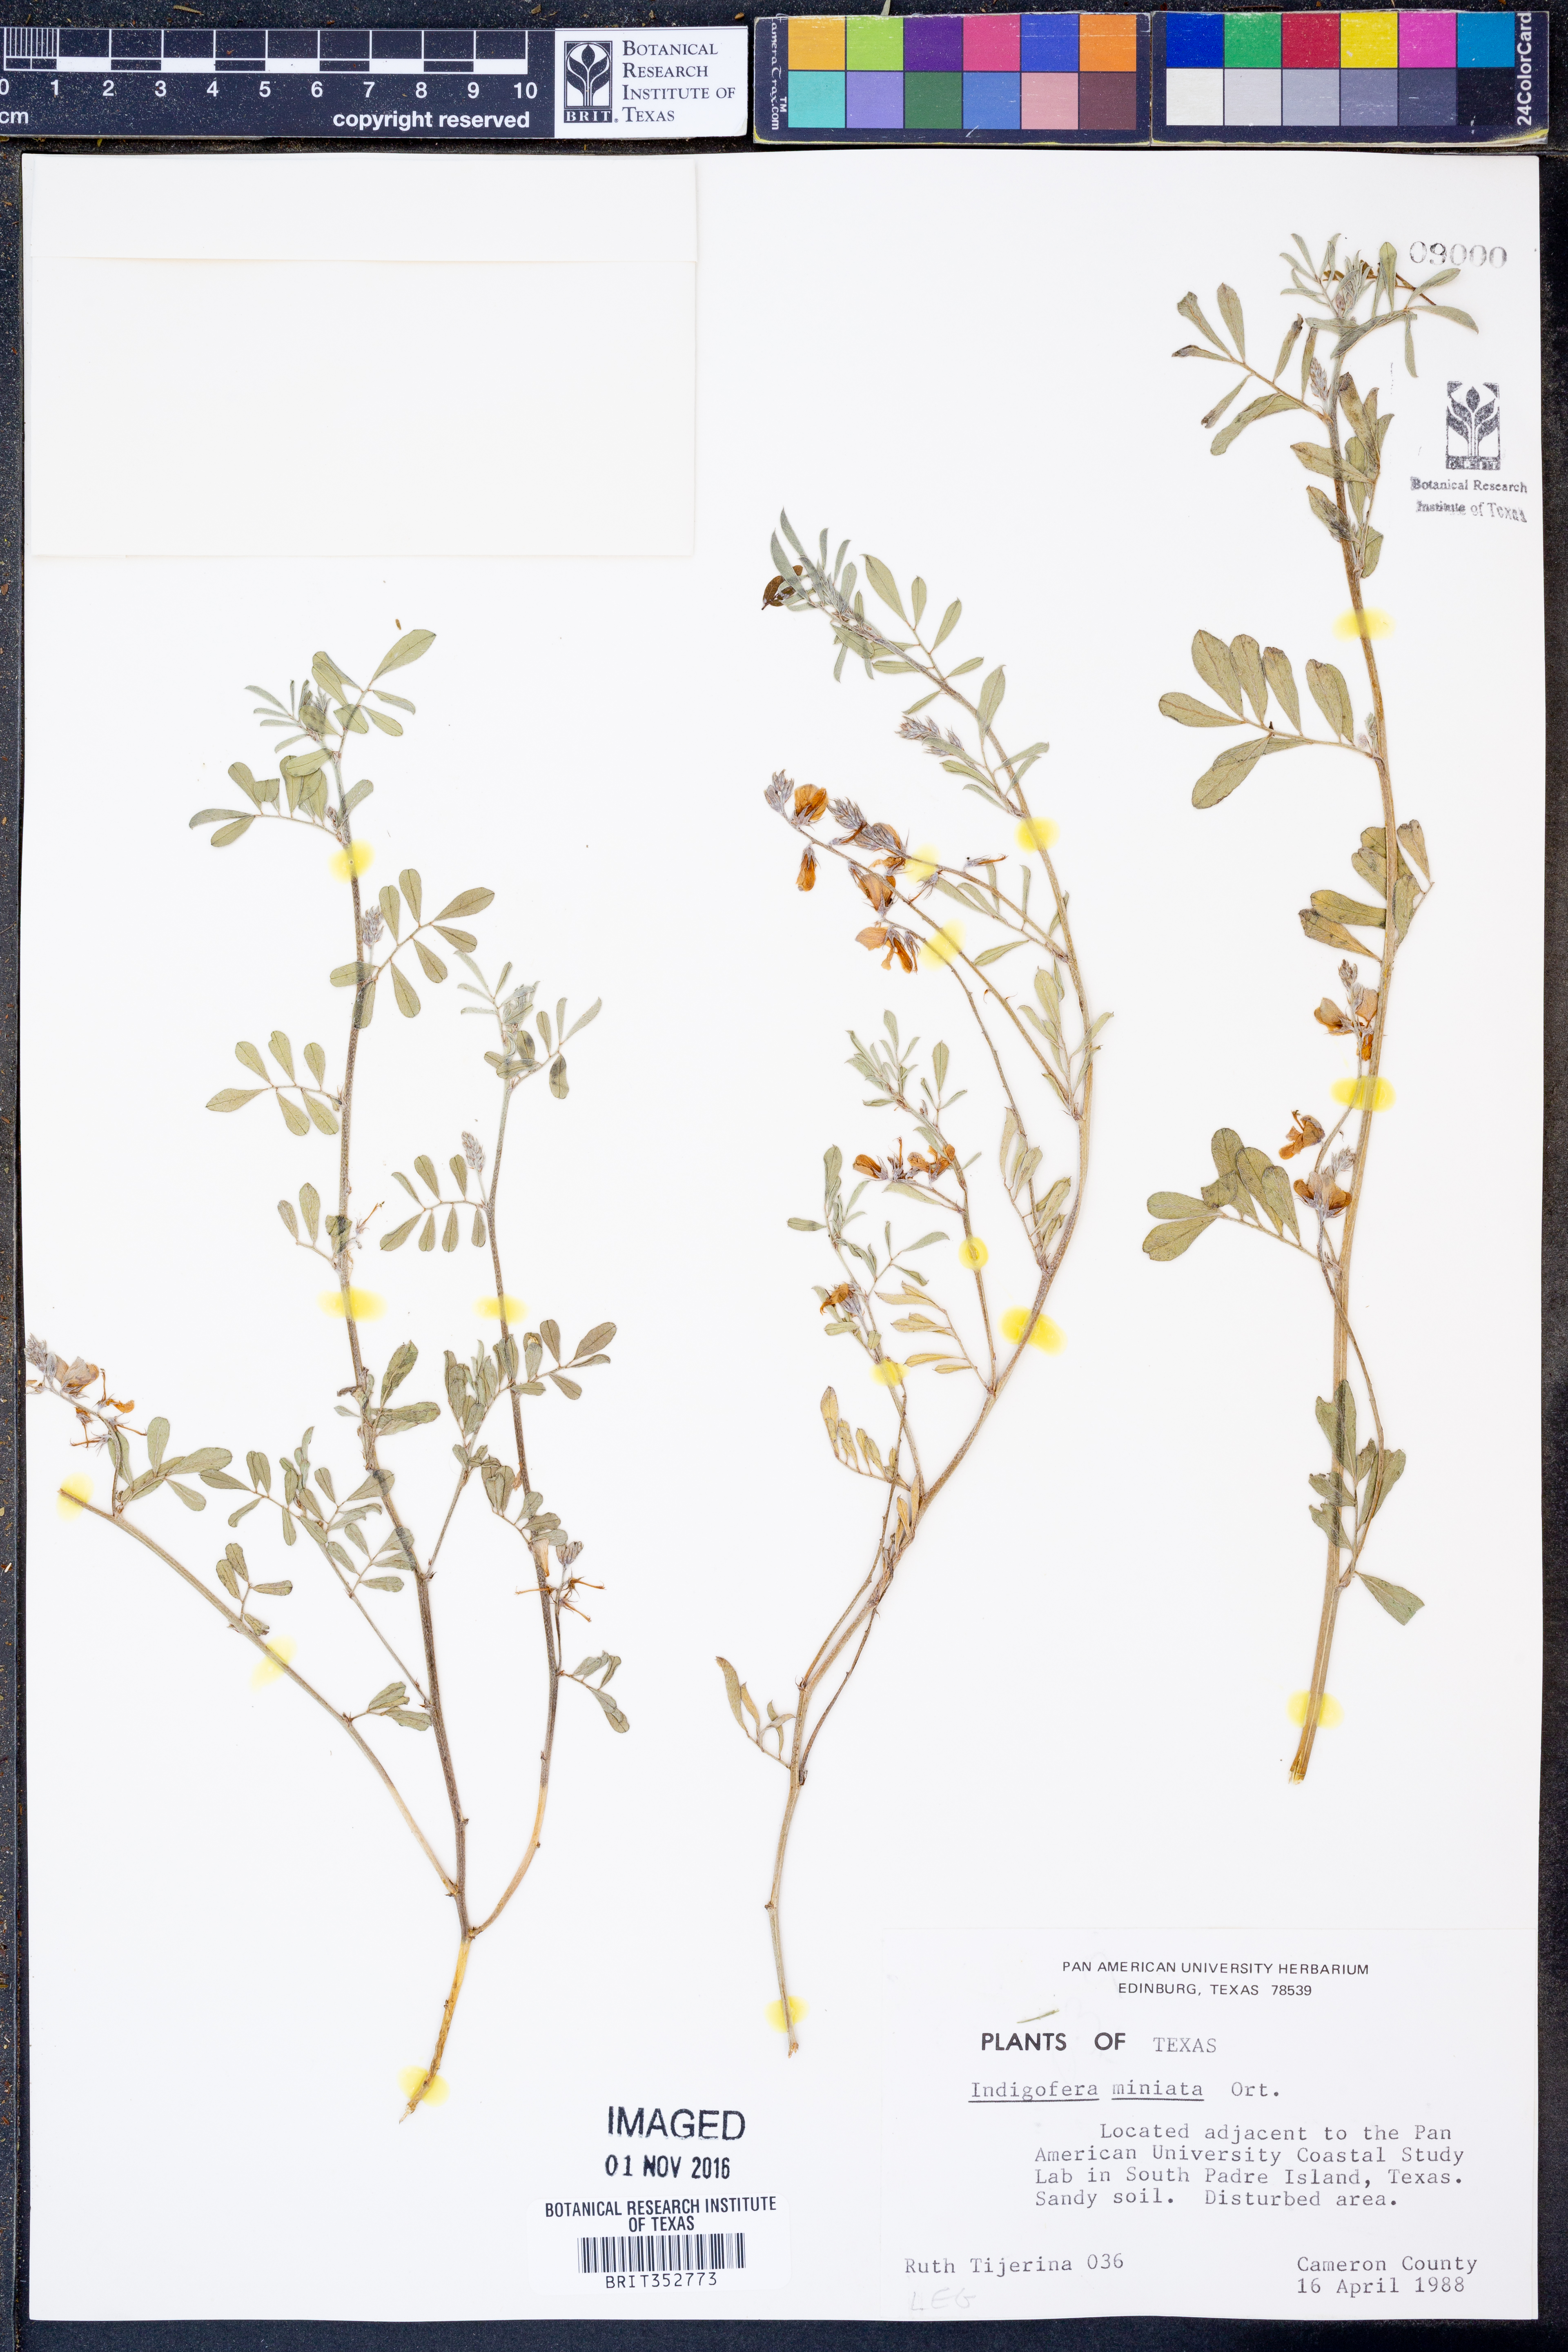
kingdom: Plantae
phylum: Tracheophyta
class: Magnoliopsida
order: Fabales
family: Fabaceae
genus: Indigofera
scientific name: Indigofera miniata
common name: Coast indigo
